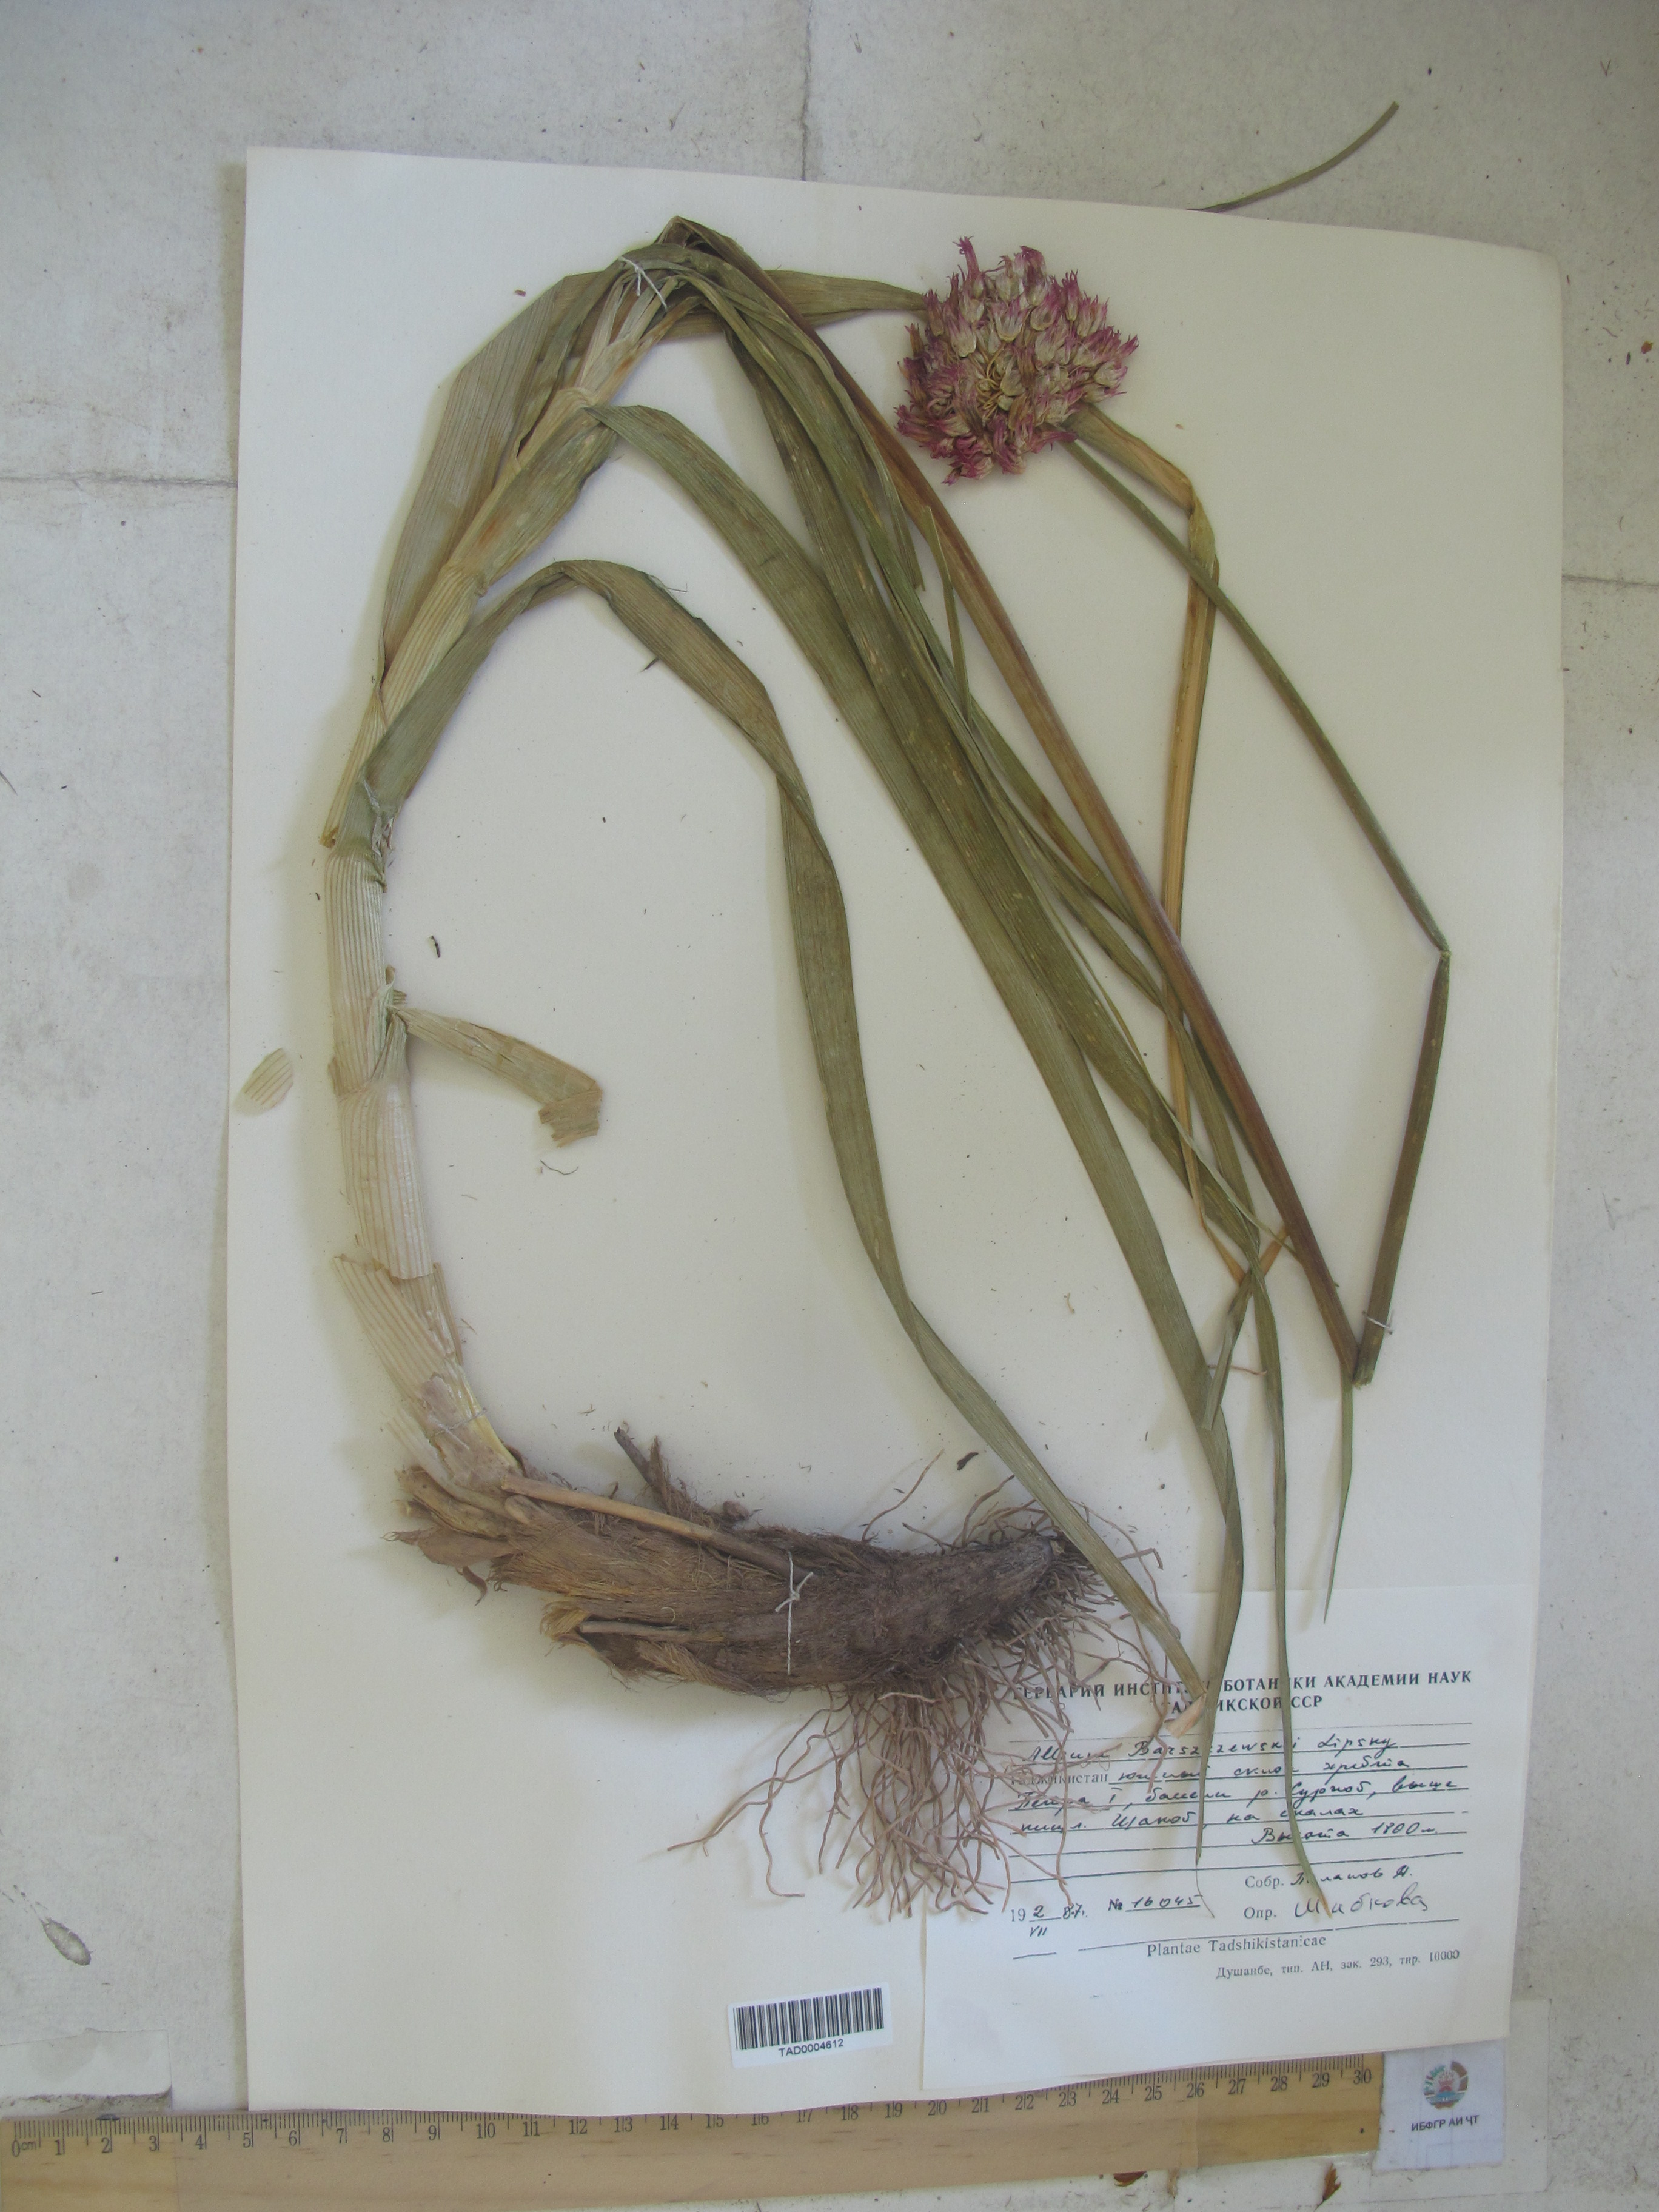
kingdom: Plantae
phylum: Tracheophyta
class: Liliopsida
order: Asparagales
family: Amaryllidaceae
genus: Allium
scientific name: Allium barsczewskii
